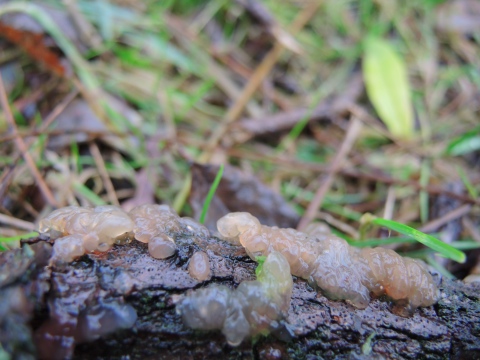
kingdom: Fungi
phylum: Basidiomycota
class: Agaricomycetes
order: Auriculariales
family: Hyaloriaceae
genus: Myxarium
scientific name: Myxarium hyalinum
